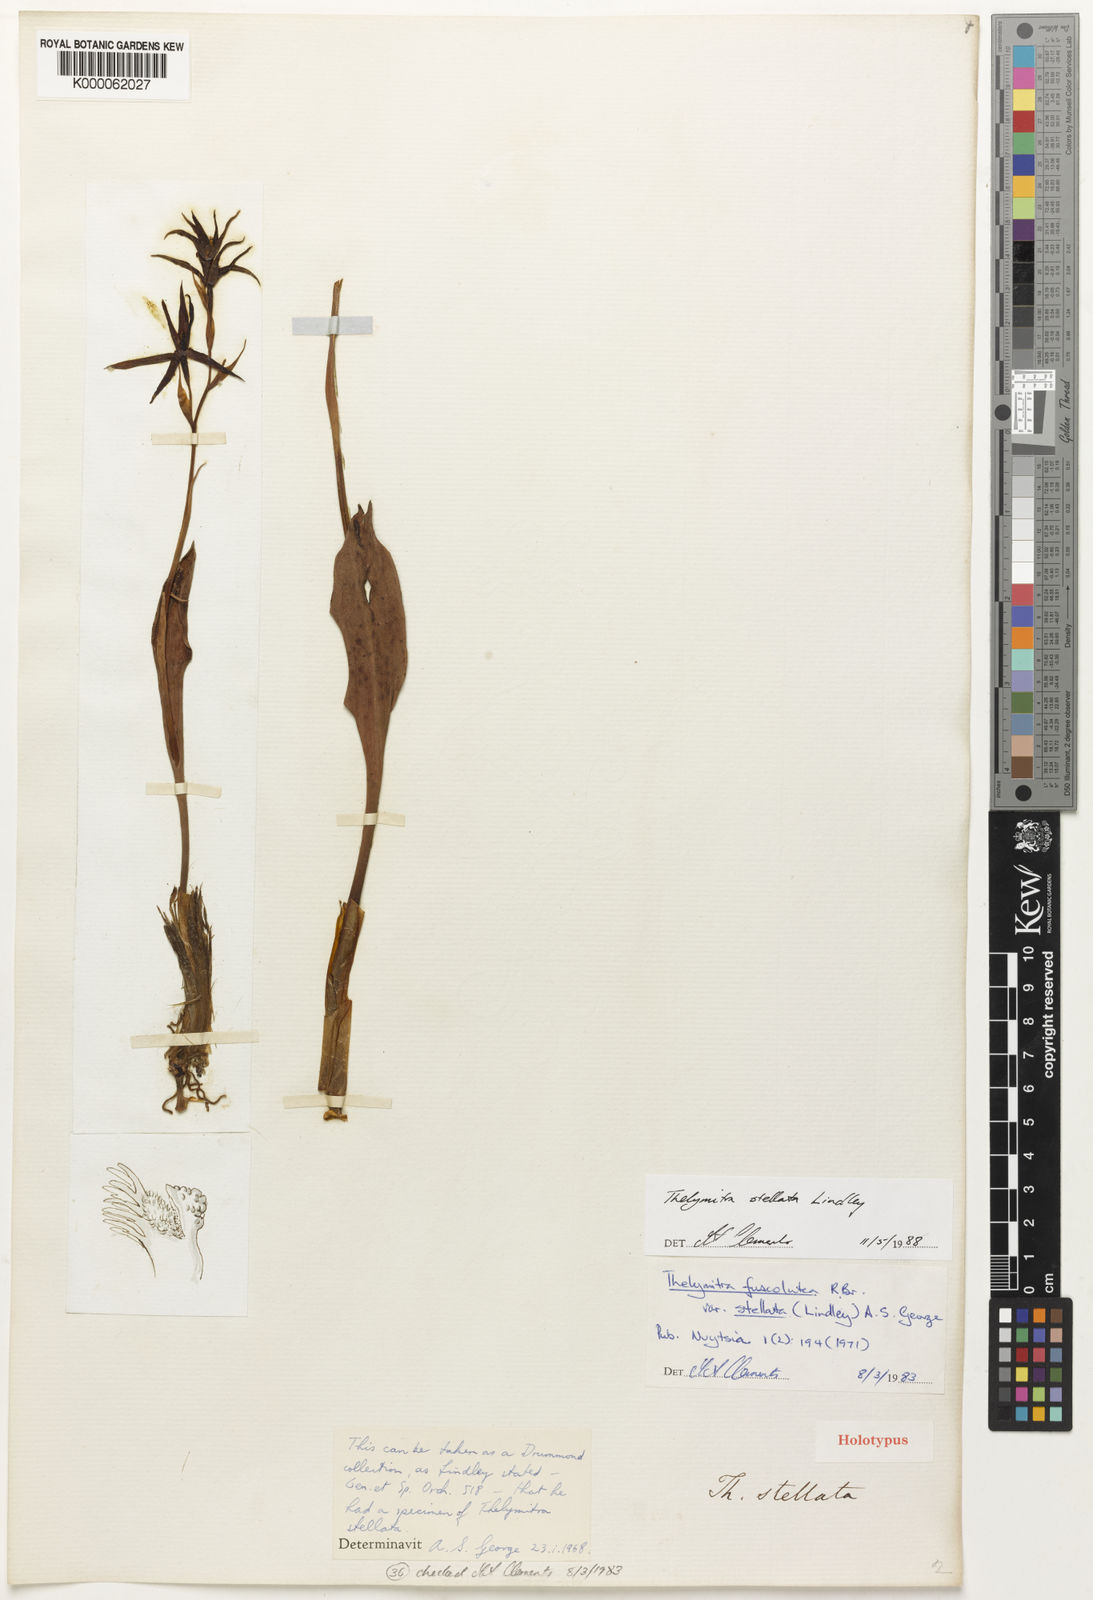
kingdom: Plantae
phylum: Tracheophyta
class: Liliopsida
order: Asparagales
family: Orchidaceae
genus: Thelymitra
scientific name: Thelymitra stellata
